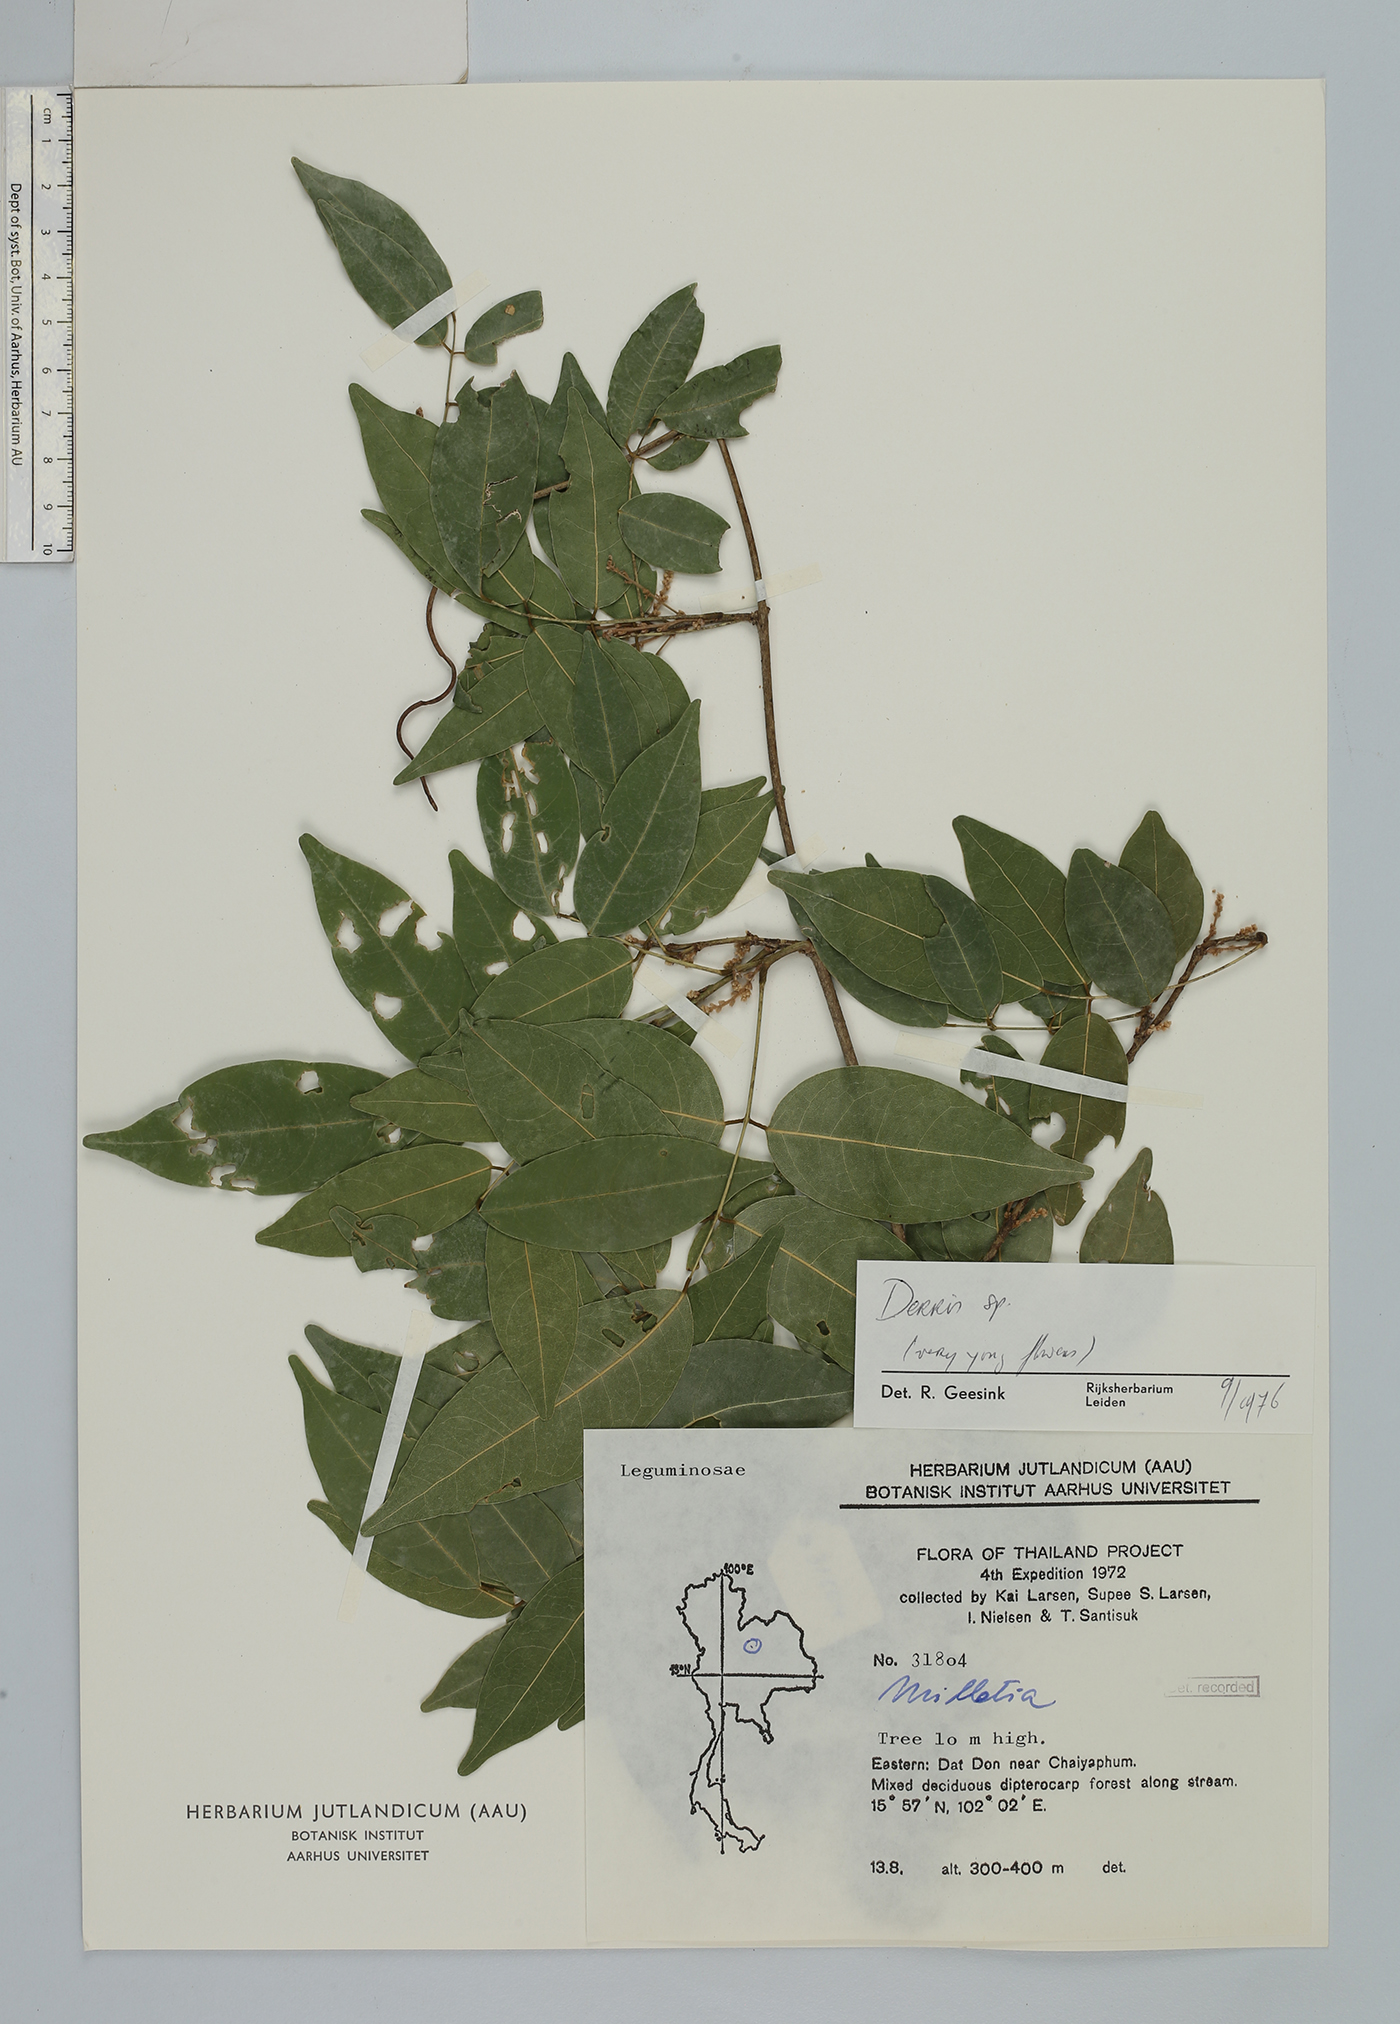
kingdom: Plantae
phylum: Tracheophyta
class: Magnoliopsida
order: Fabales
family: Fabaceae
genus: Derris
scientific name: Derris
